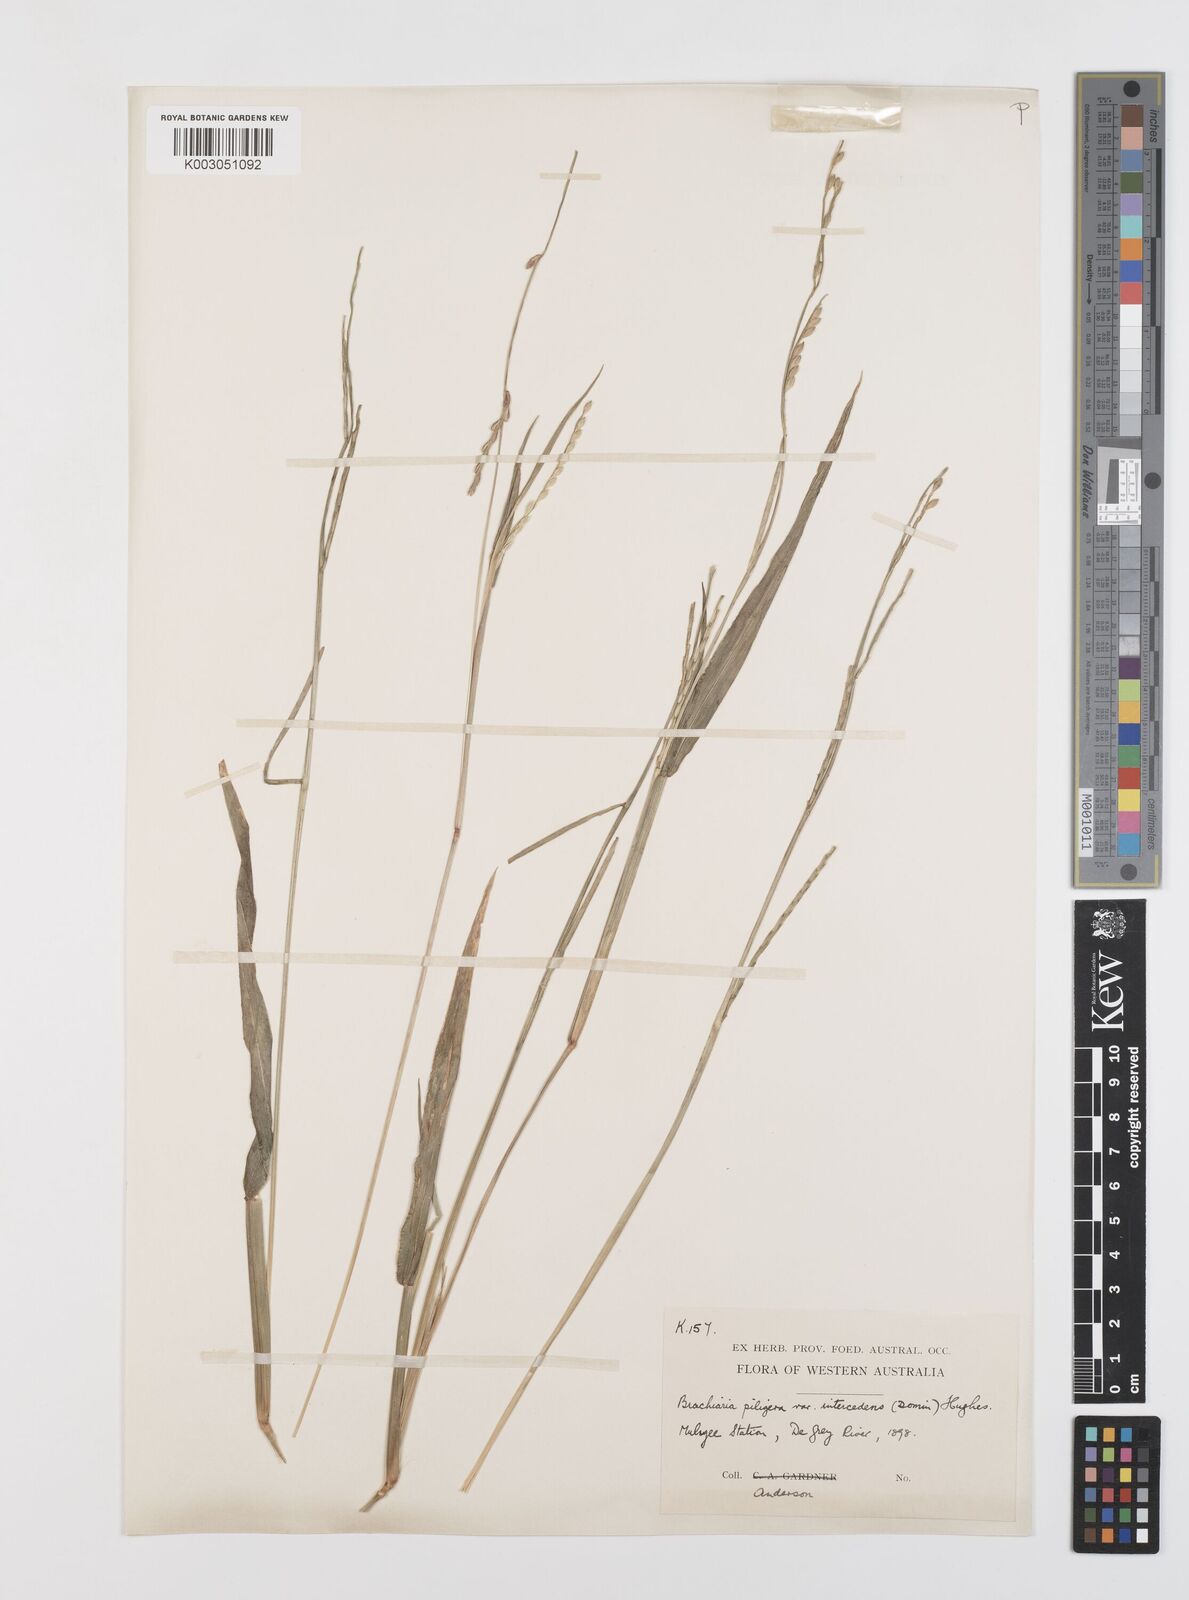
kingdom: Plantae
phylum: Tracheophyta
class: Liliopsida
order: Poales
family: Poaceae
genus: Urochloa
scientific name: Urochloa piligera
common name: Wattle signalgrass
